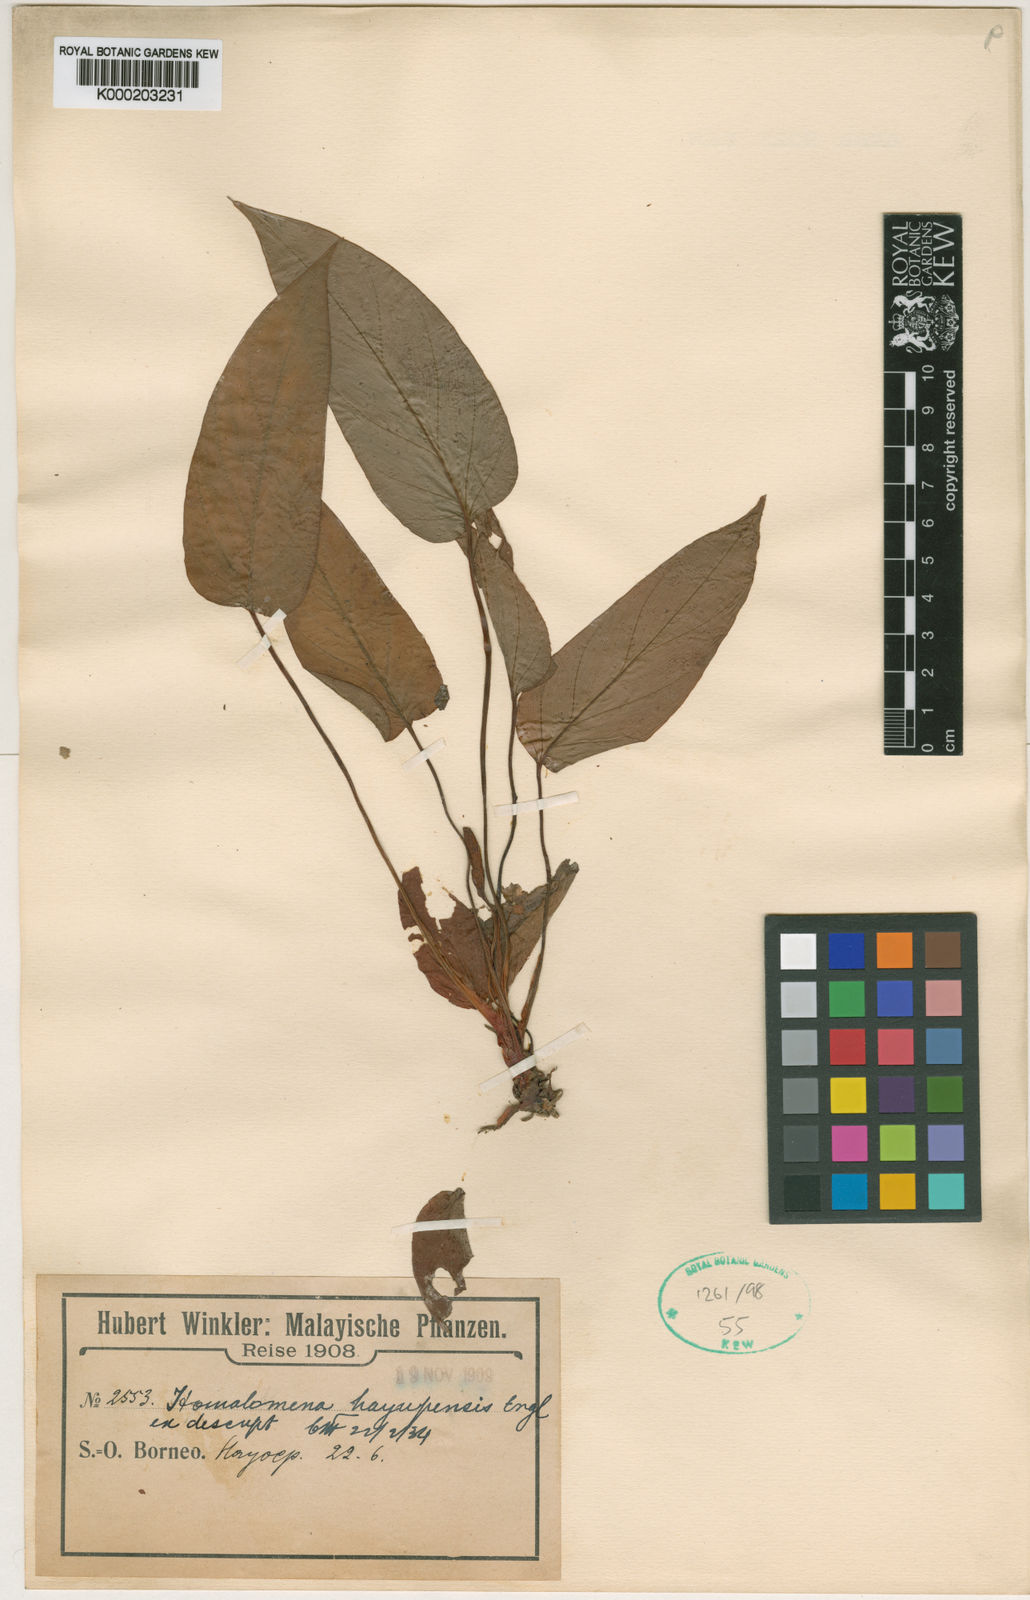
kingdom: Plantae
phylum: Tracheophyta
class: Liliopsida
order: Alismatales
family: Araceae
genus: Homalomena
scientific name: Homalomena griffithii
